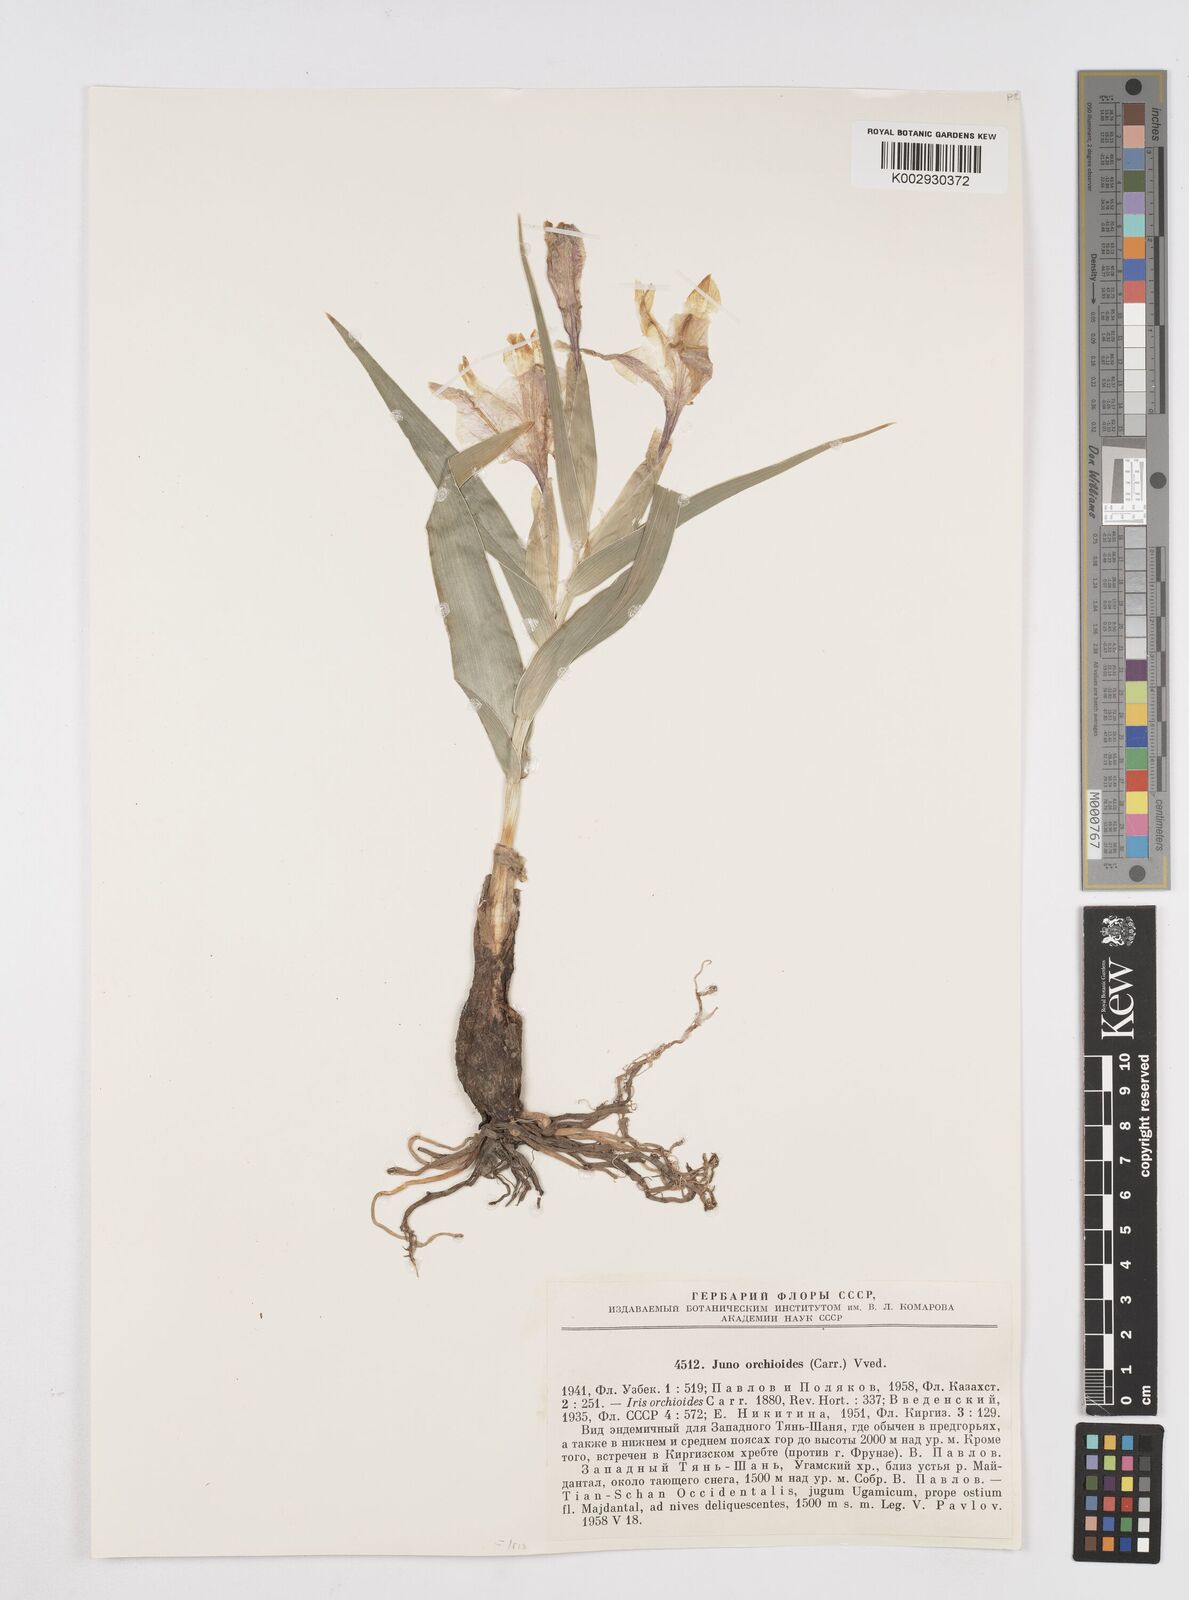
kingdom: Plantae
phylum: Tracheophyta
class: Liliopsida
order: Asparagales
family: Iridaceae
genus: Iris
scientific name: Iris orchioides
